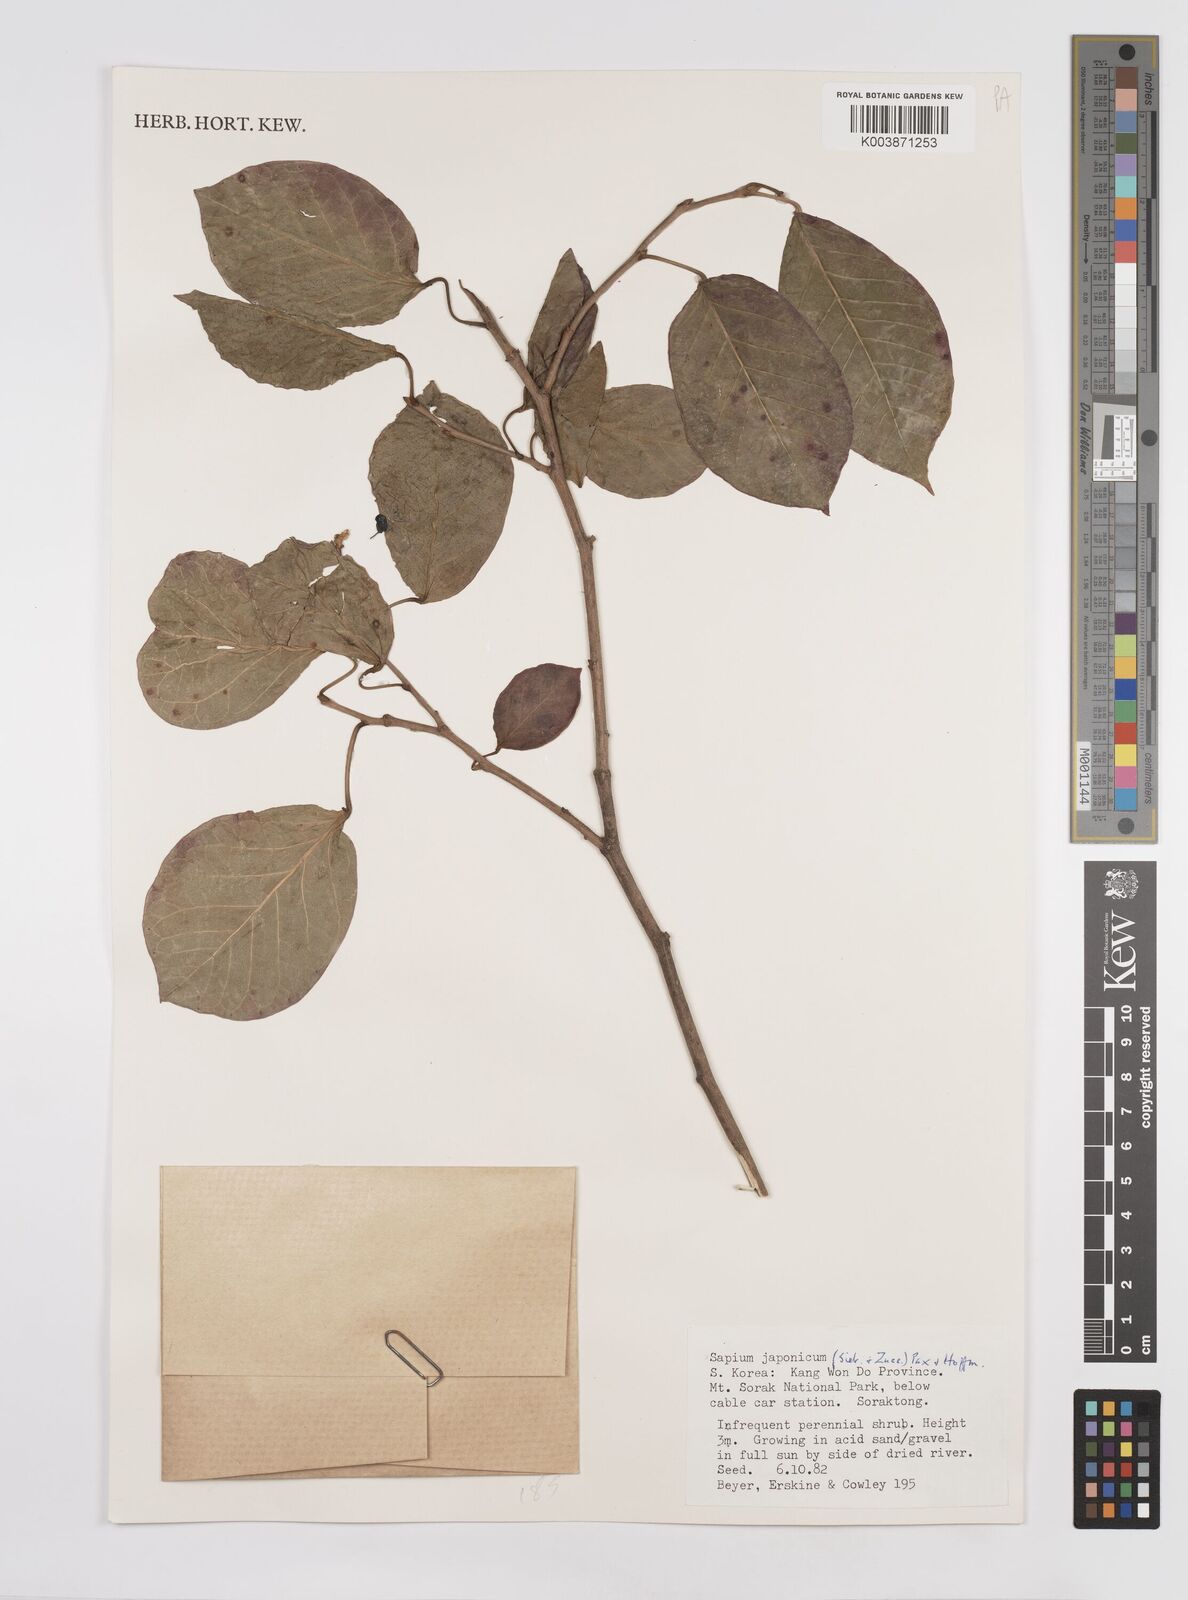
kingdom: Plantae
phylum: Tracheophyta
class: Magnoliopsida
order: Malpighiales
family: Euphorbiaceae
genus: Neoshirakia
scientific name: Neoshirakia japonica
